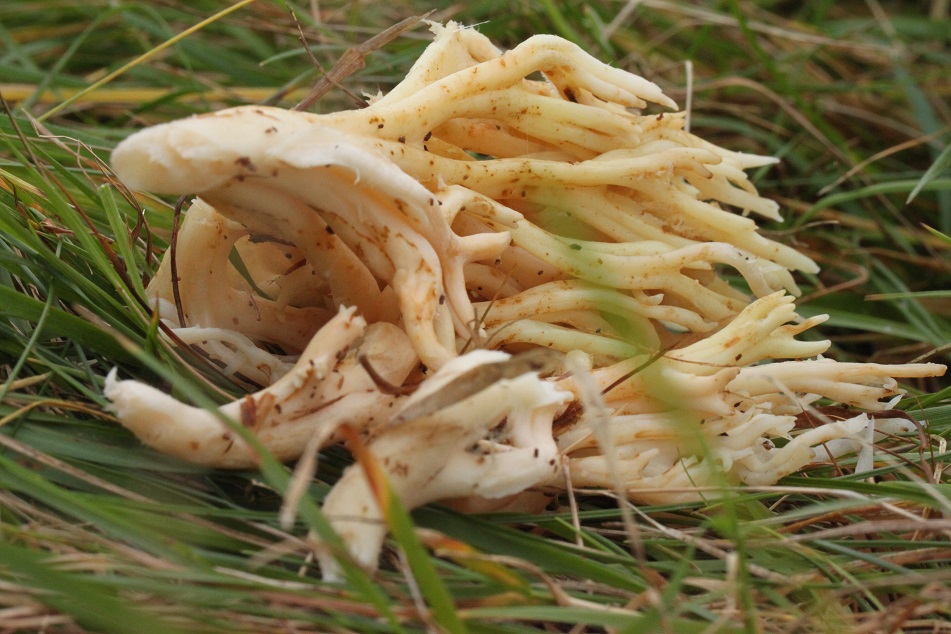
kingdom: Fungi
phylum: Basidiomycota
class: Agaricomycetes
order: Agaricales
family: Clavariaceae
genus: Ramariopsis
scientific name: Ramariopsis kunzei
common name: mangegrenet køllesvamp
